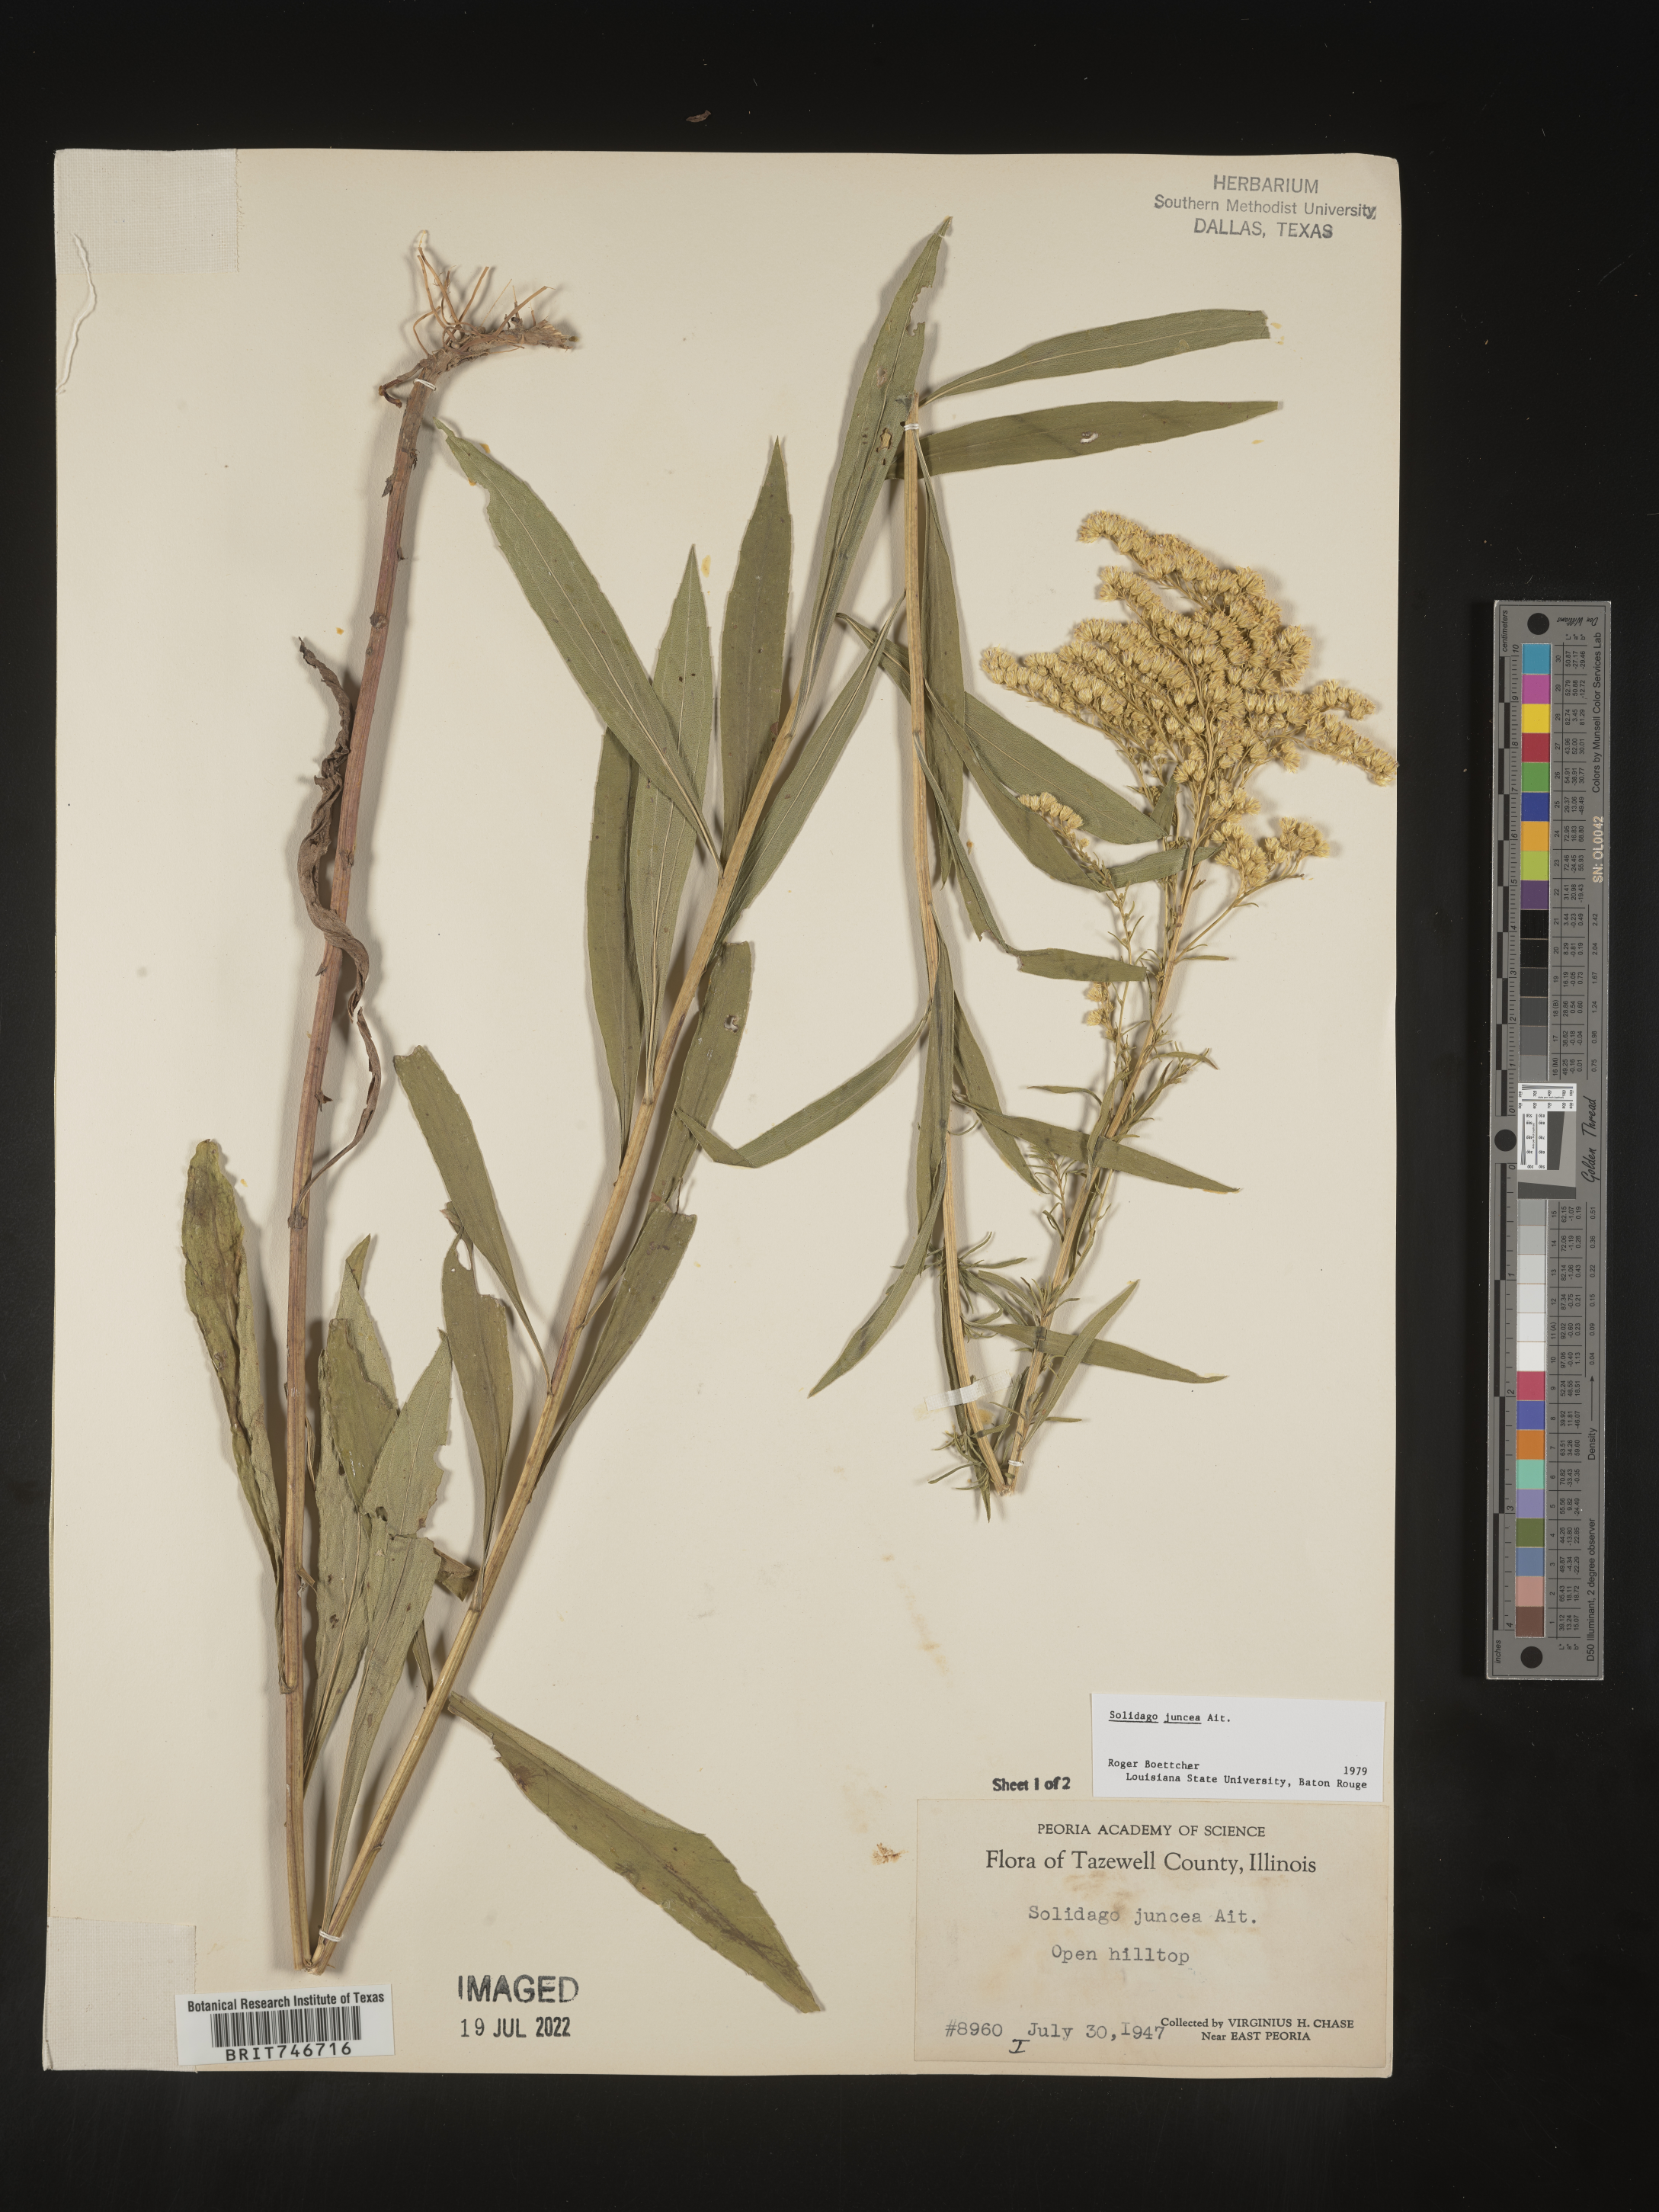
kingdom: Plantae
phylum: Tracheophyta
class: Magnoliopsida
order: Asterales
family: Asteraceae
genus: Solidago
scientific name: Solidago juncea
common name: Early goldenrod
